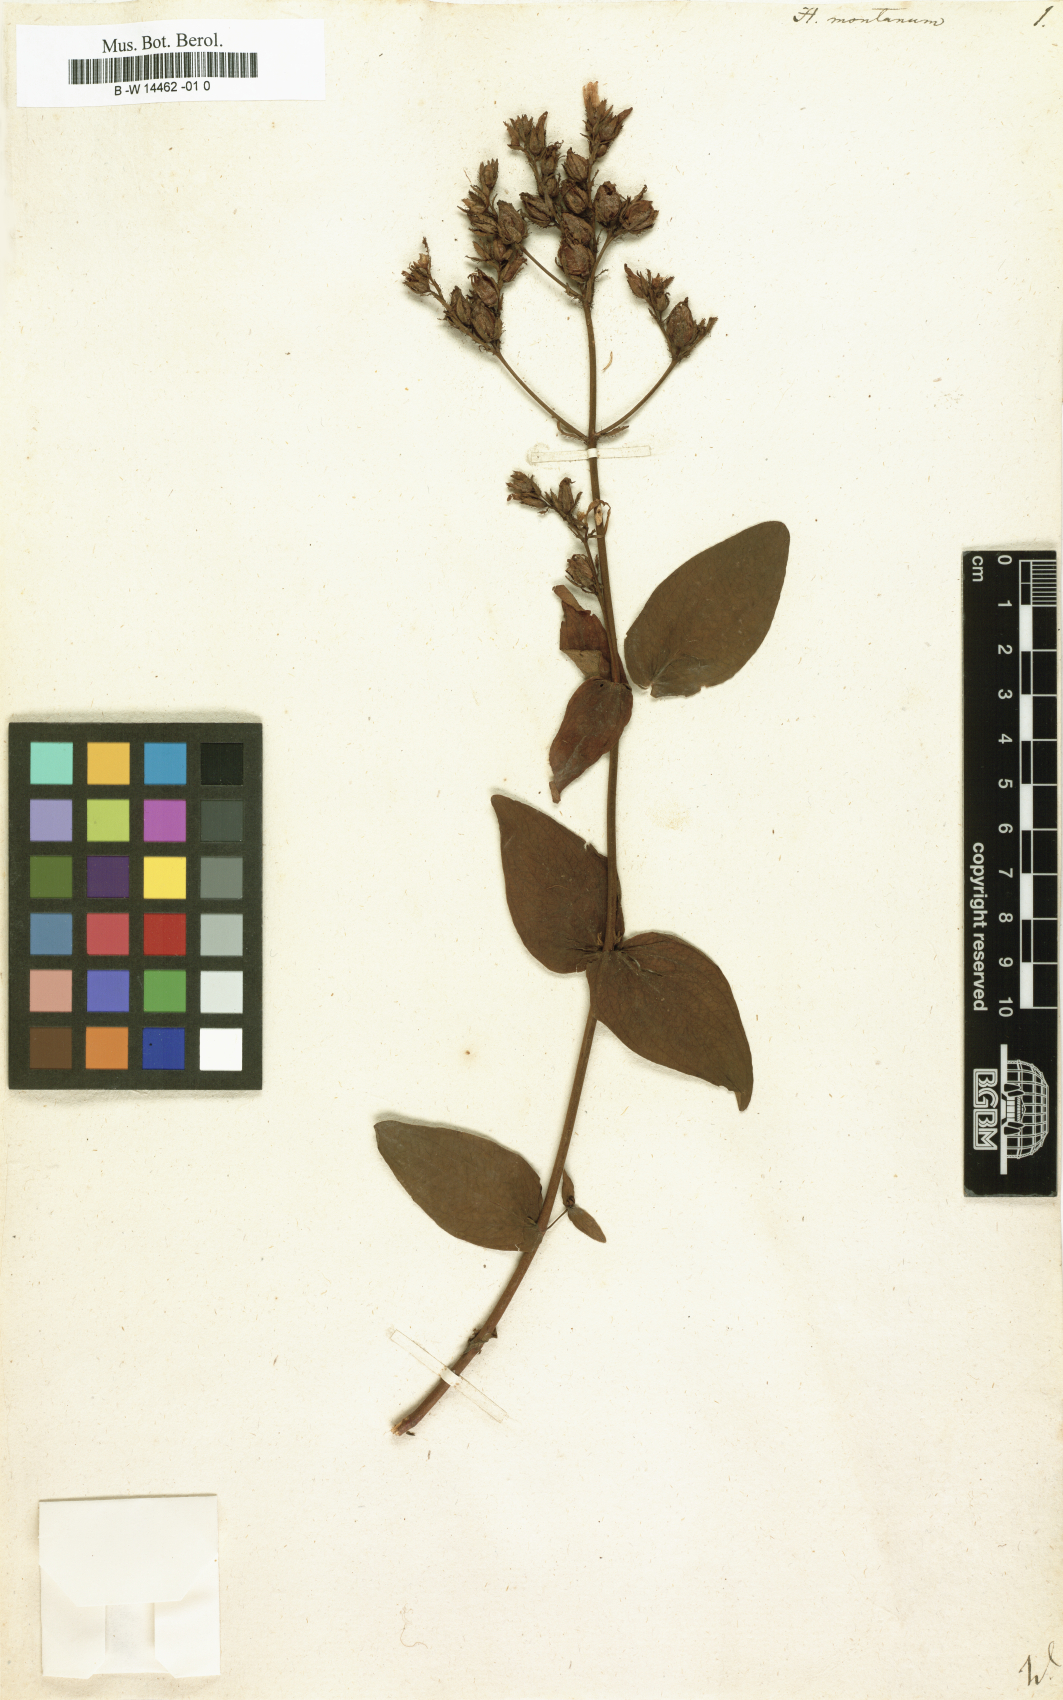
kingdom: Plantae
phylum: Tracheophyta
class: Magnoliopsida
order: Malpighiales
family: Hypericaceae
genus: Hypericum
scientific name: Hypericum montanum
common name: Pale st. john's-wort
